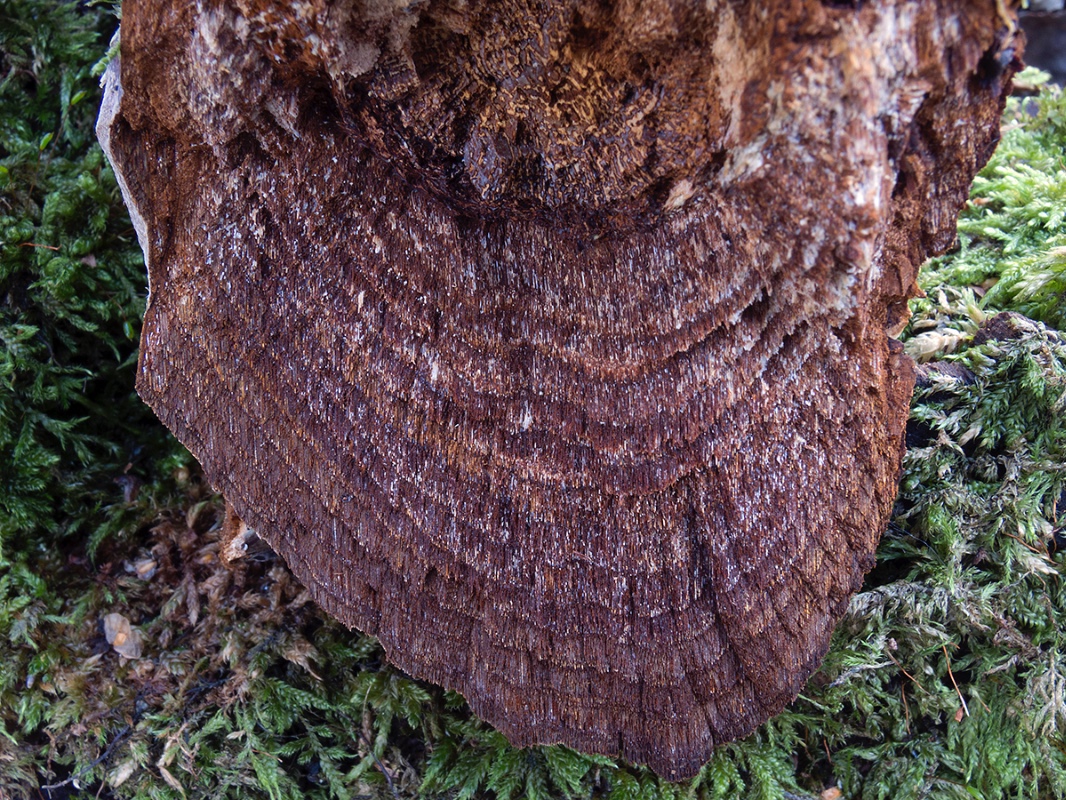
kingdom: Fungi
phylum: Basidiomycota
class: Agaricomycetes
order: Hymenochaetales
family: Hymenochaetaceae
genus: Fomitiporia
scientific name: Fomitiporia punctata
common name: pude-ildporesvamp
